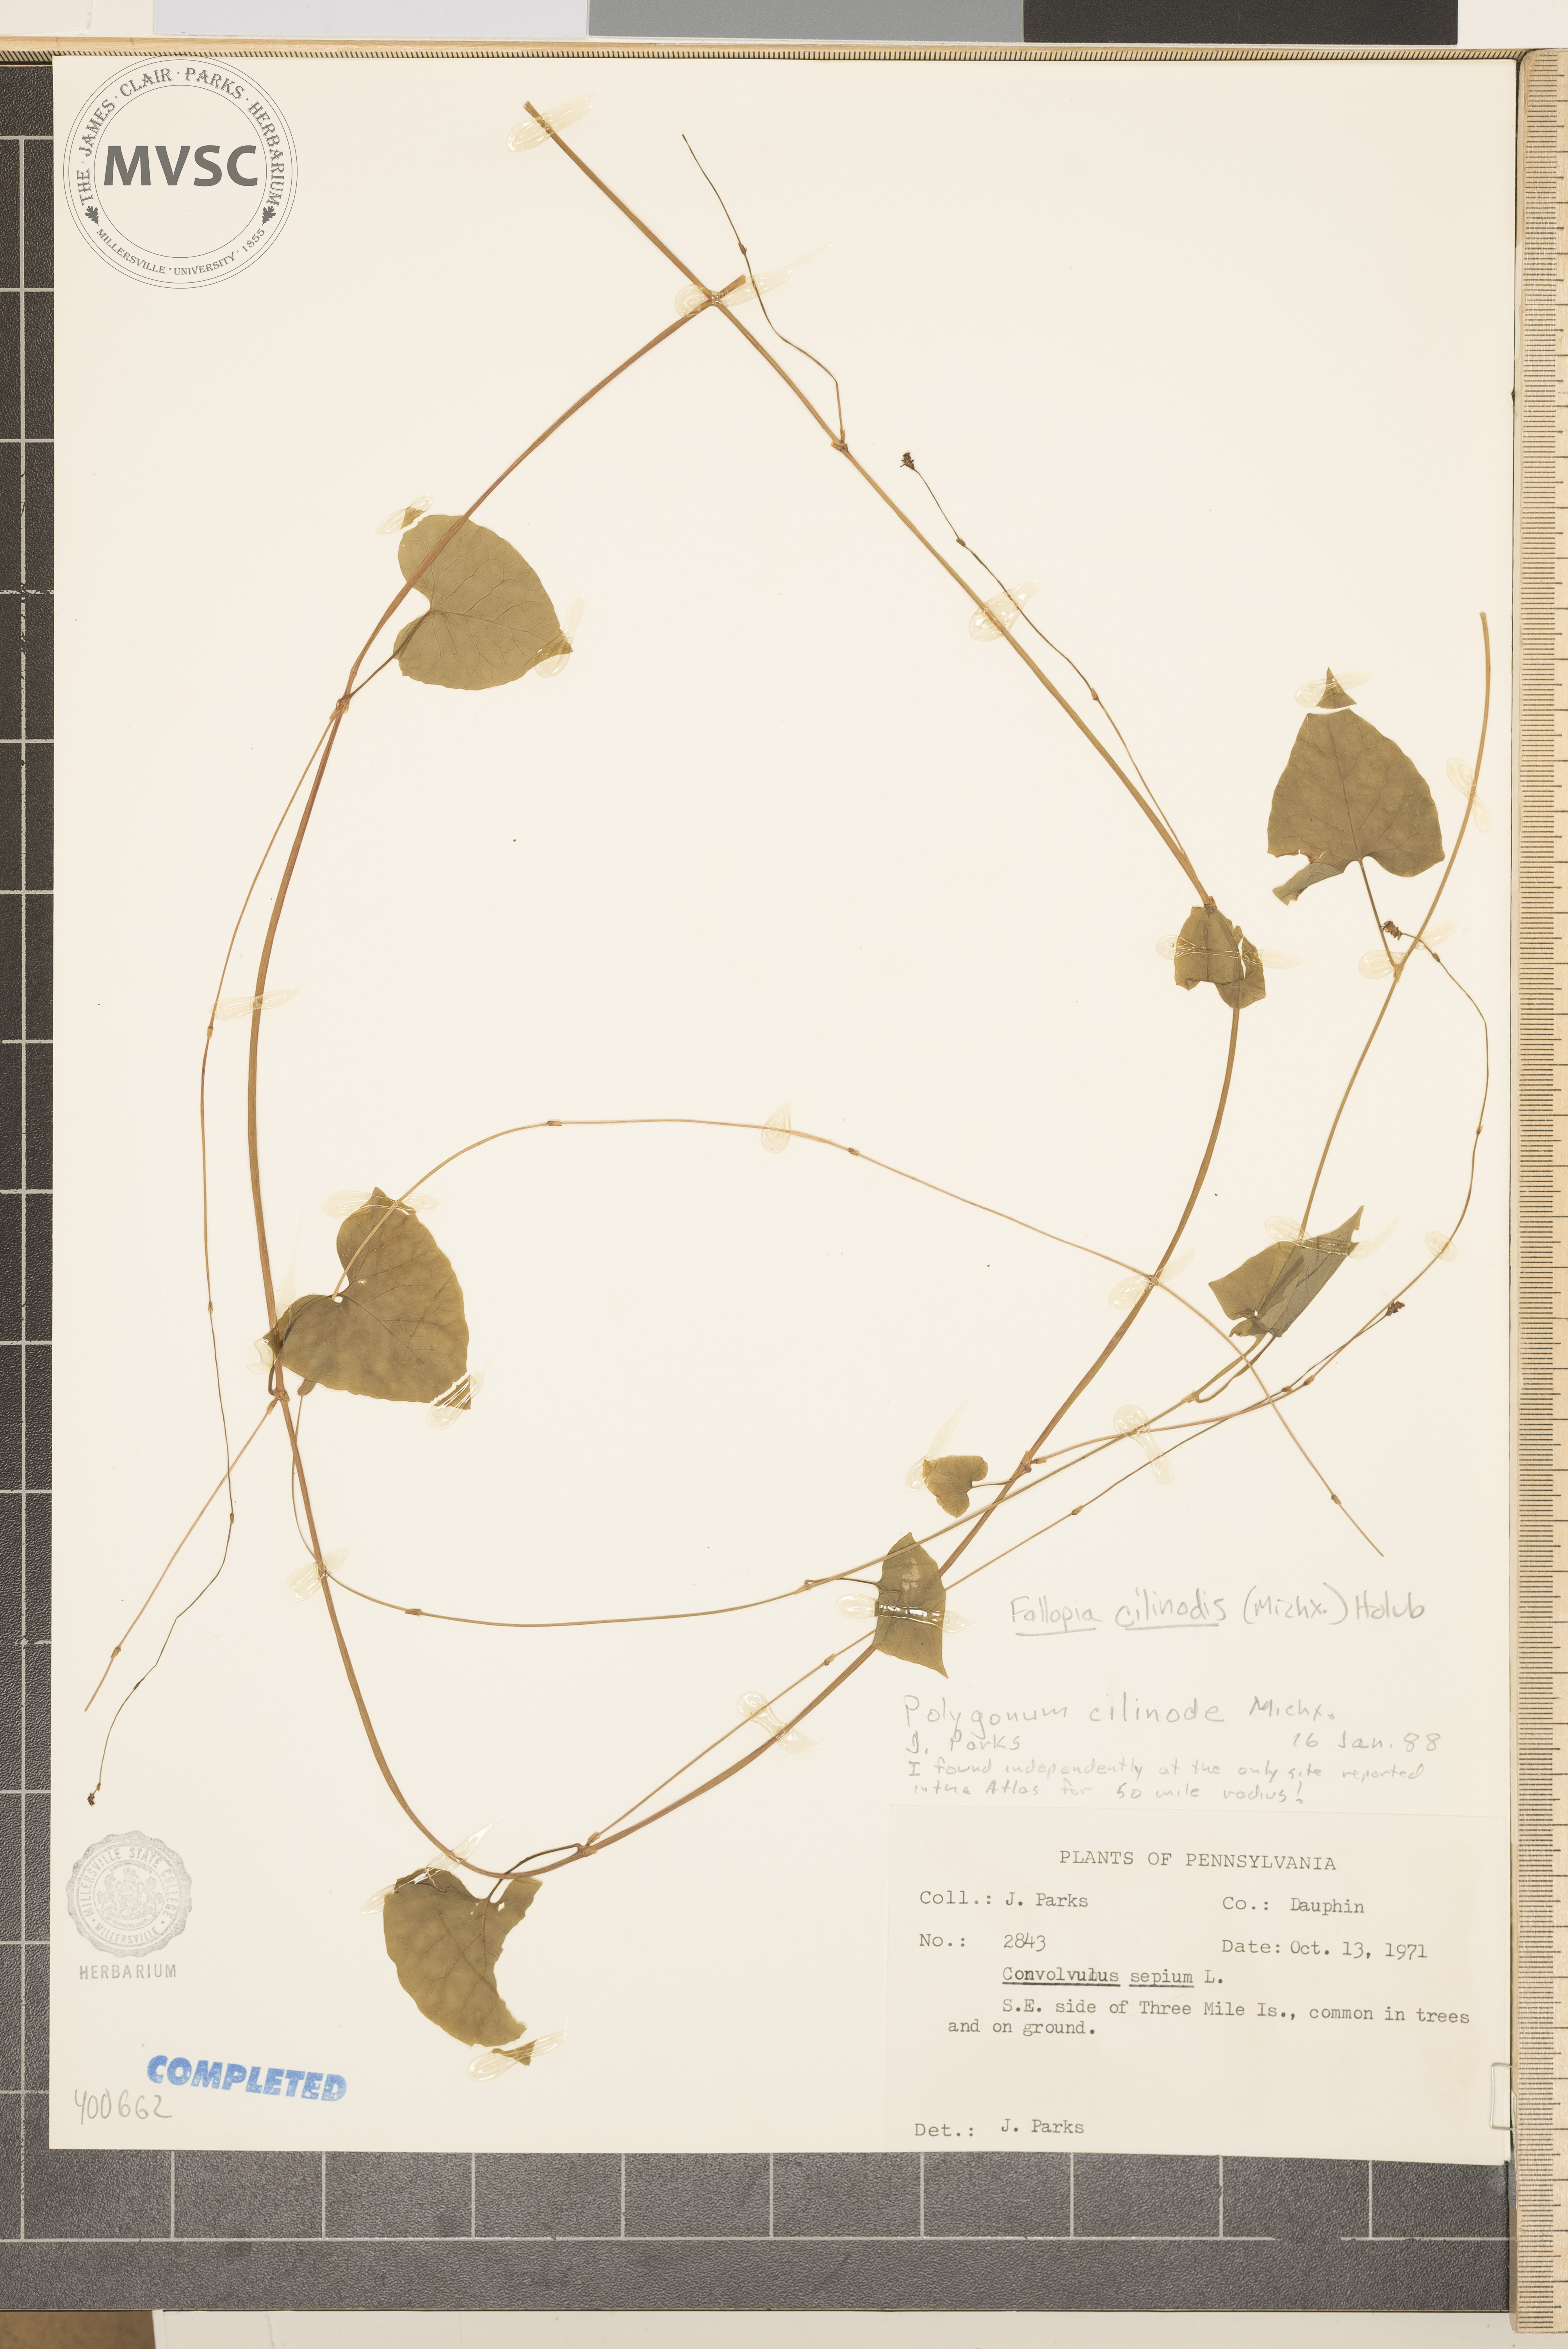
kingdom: Plantae
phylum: Tracheophyta
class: Magnoliopsida
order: Caryophyllales
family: Polygonaceae
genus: Parogonum
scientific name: Parogonum ciliinode
